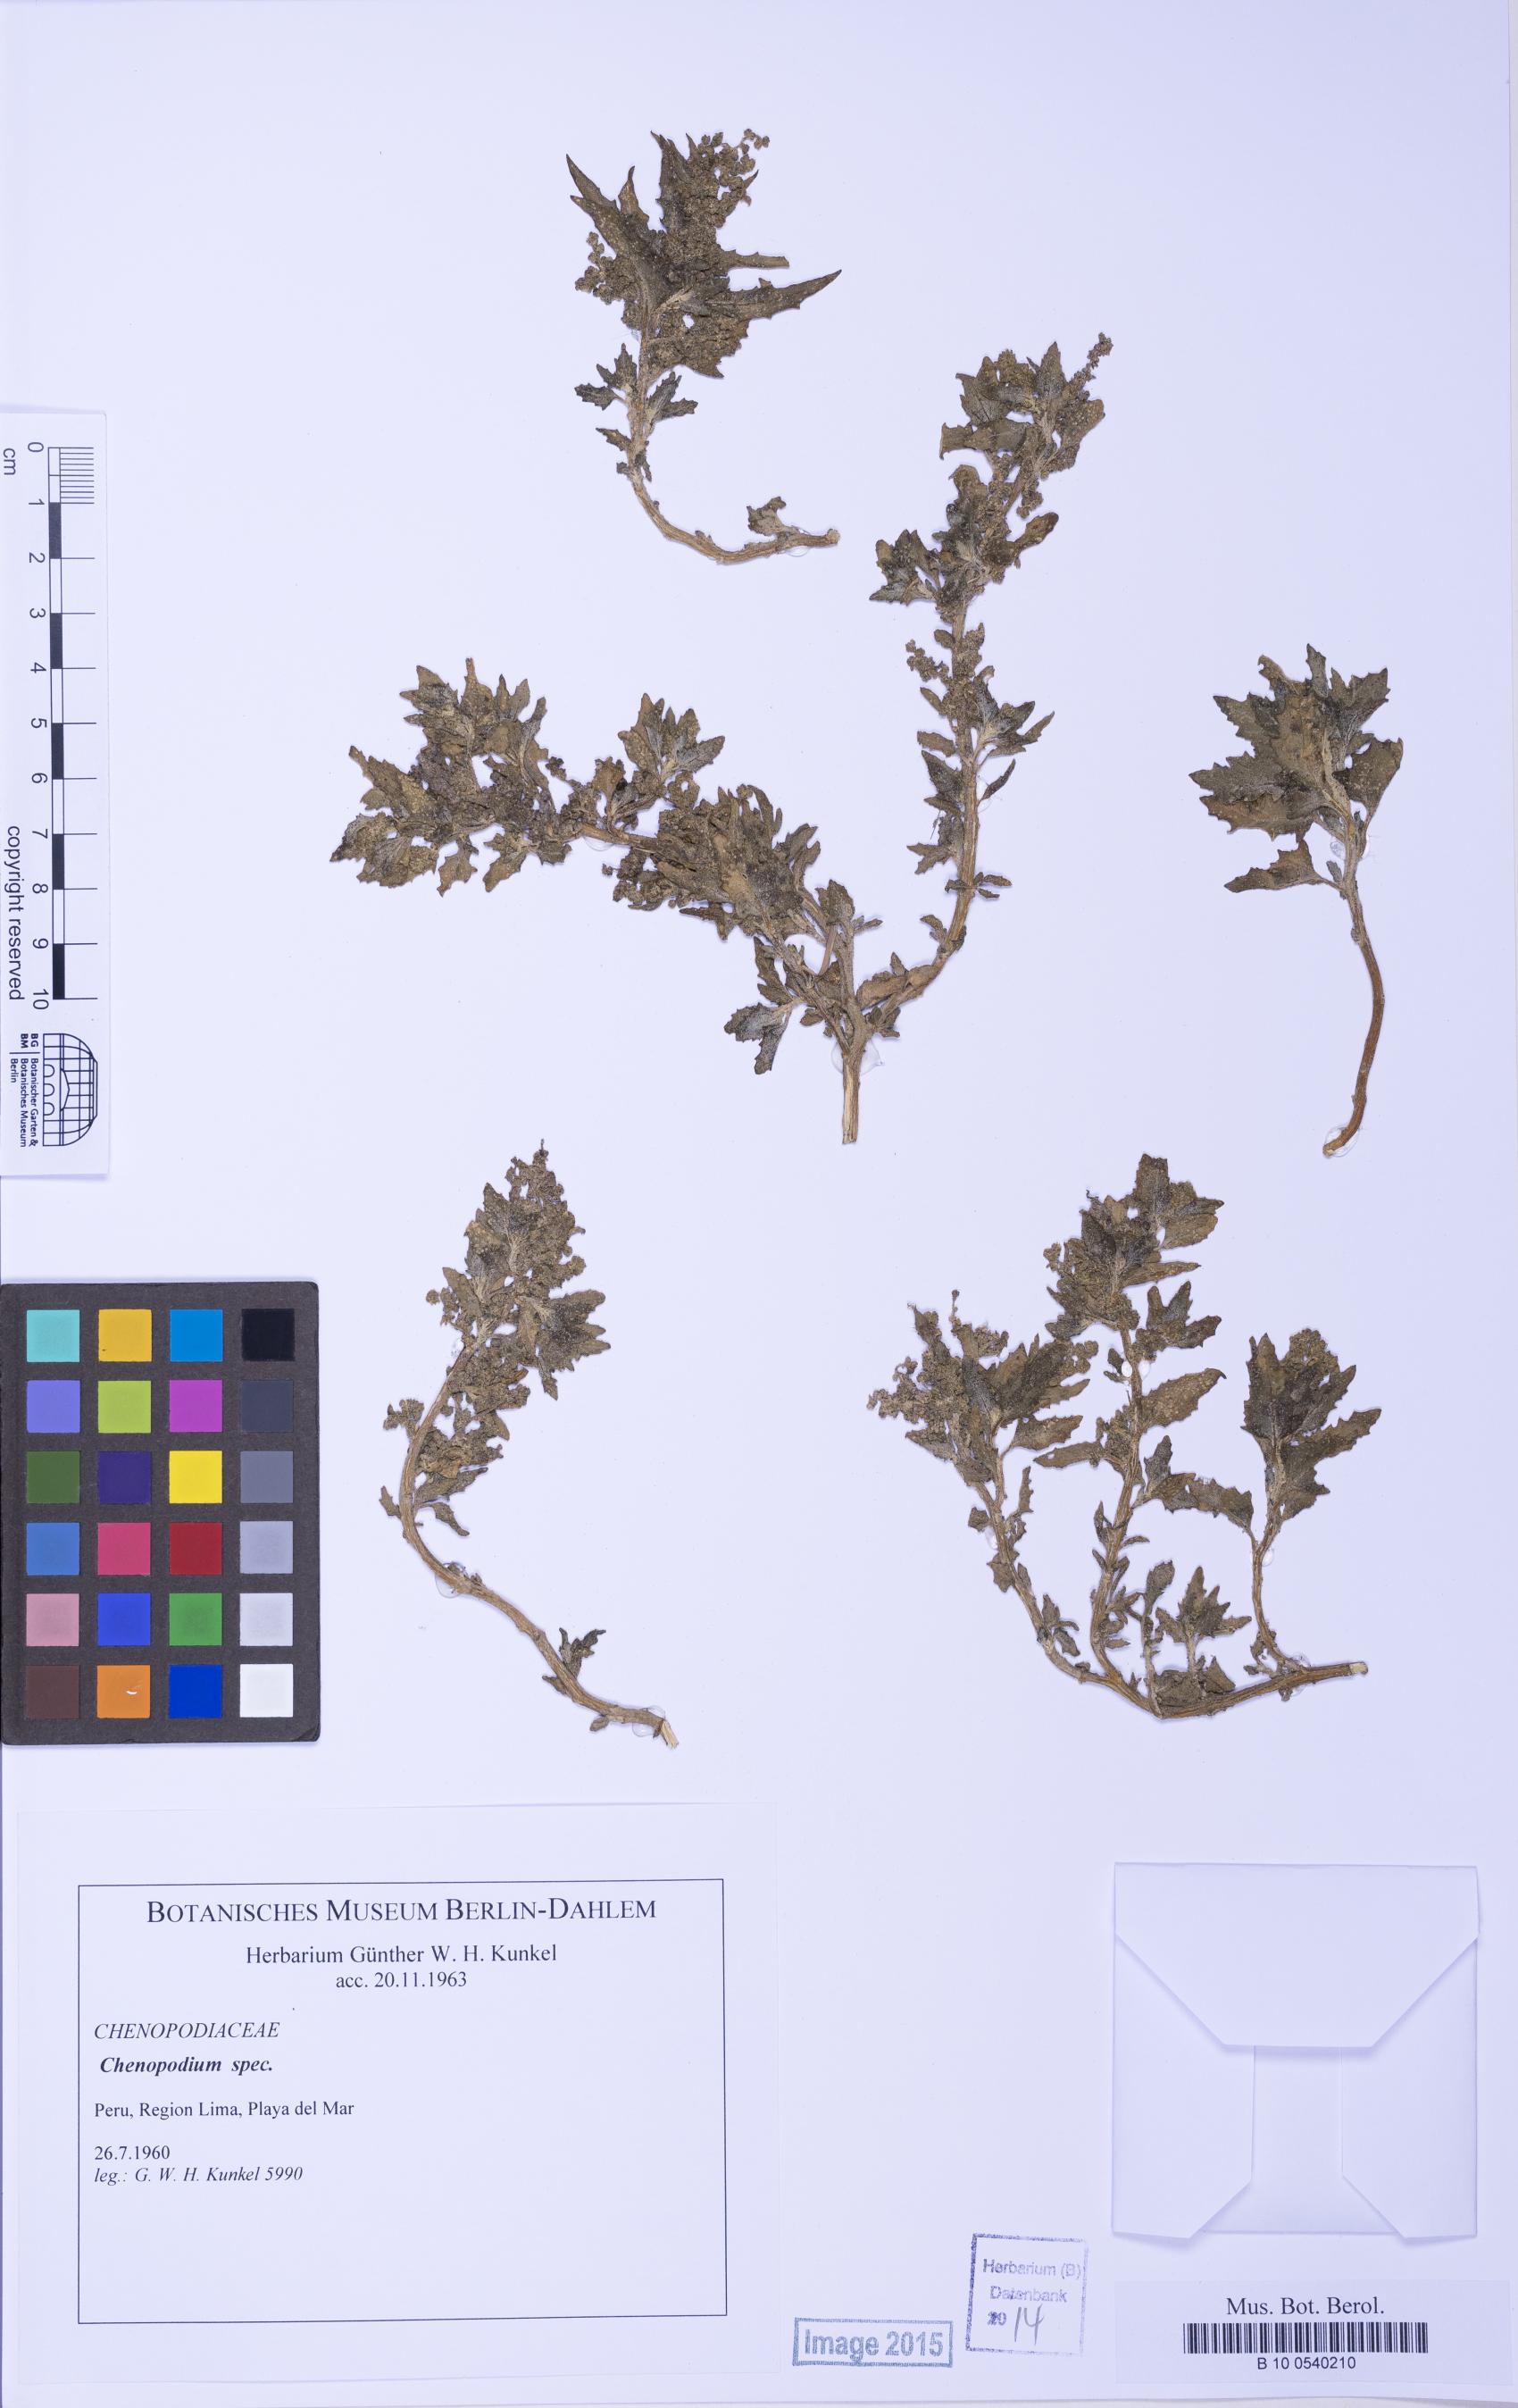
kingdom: Plantae
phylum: Tracheophyta
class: Magnoliopsida
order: Caryophyllales
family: Amaranthaceae
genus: Chenopodium
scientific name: Chenopodium
